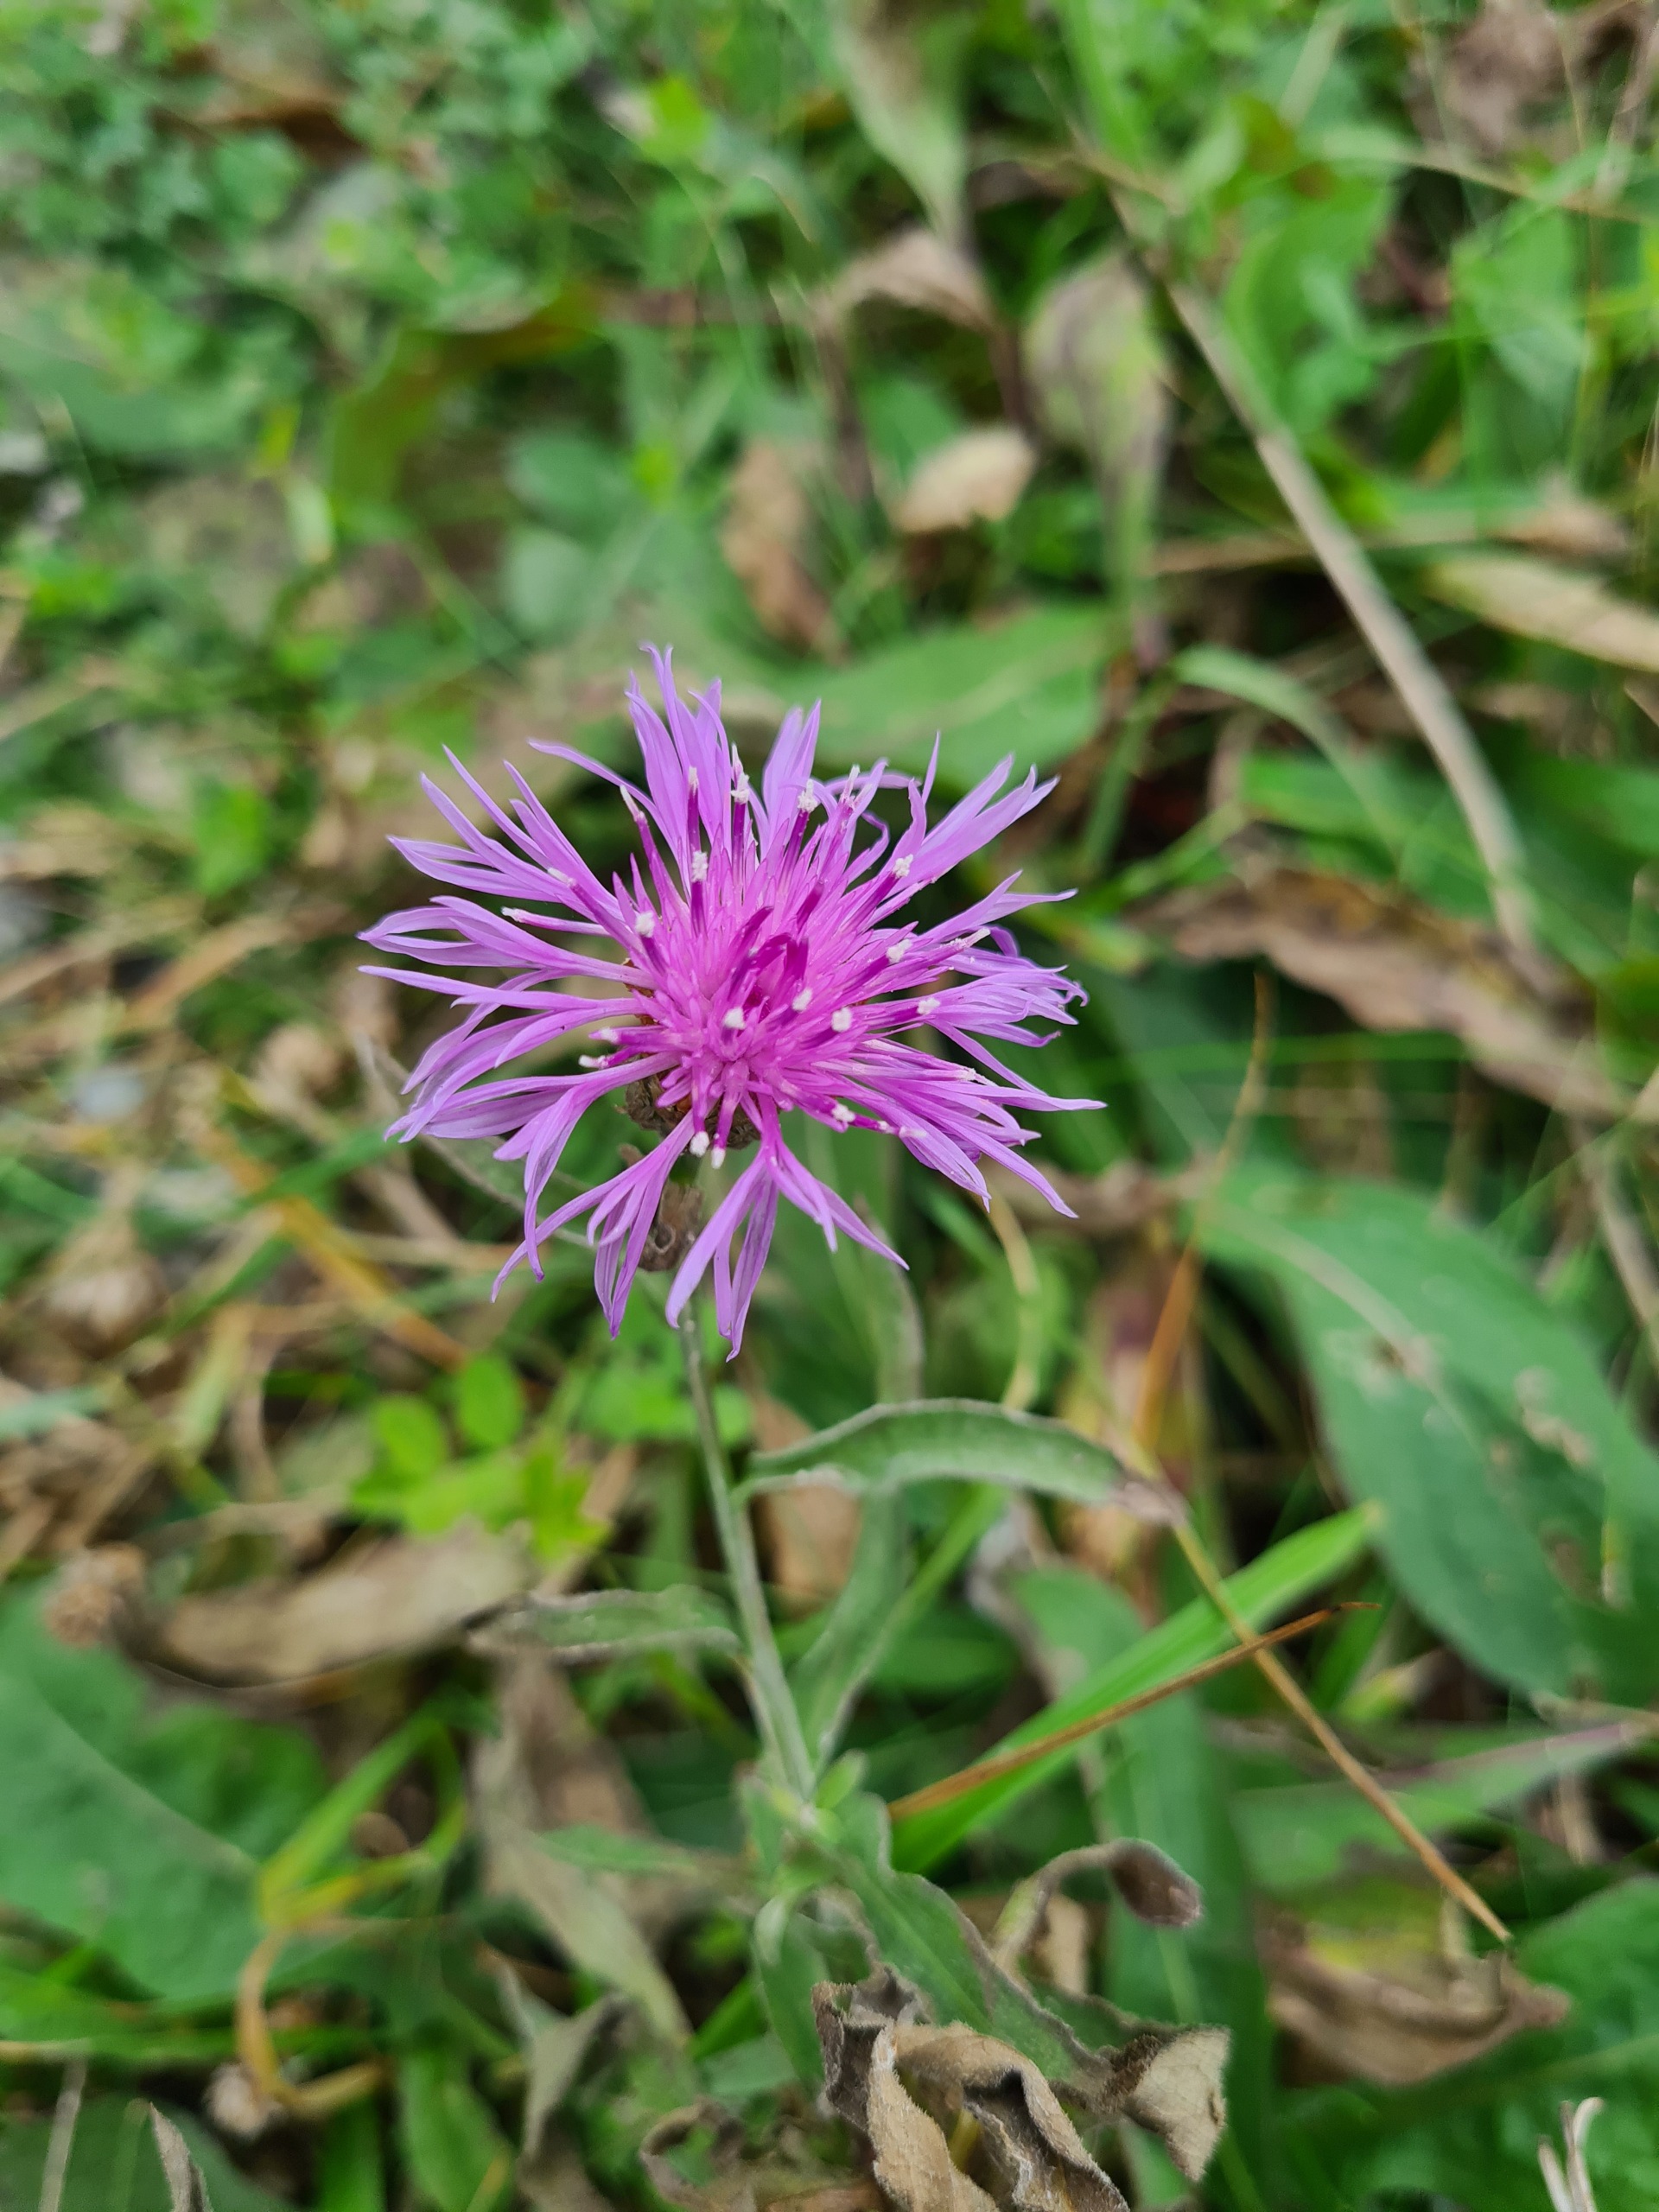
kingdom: Plantae
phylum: Tracheophyta
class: Magnoliopsida
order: Asterales
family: Asteraceae
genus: Centaurea
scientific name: Centaurea jacea
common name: Almindelig knopurt
